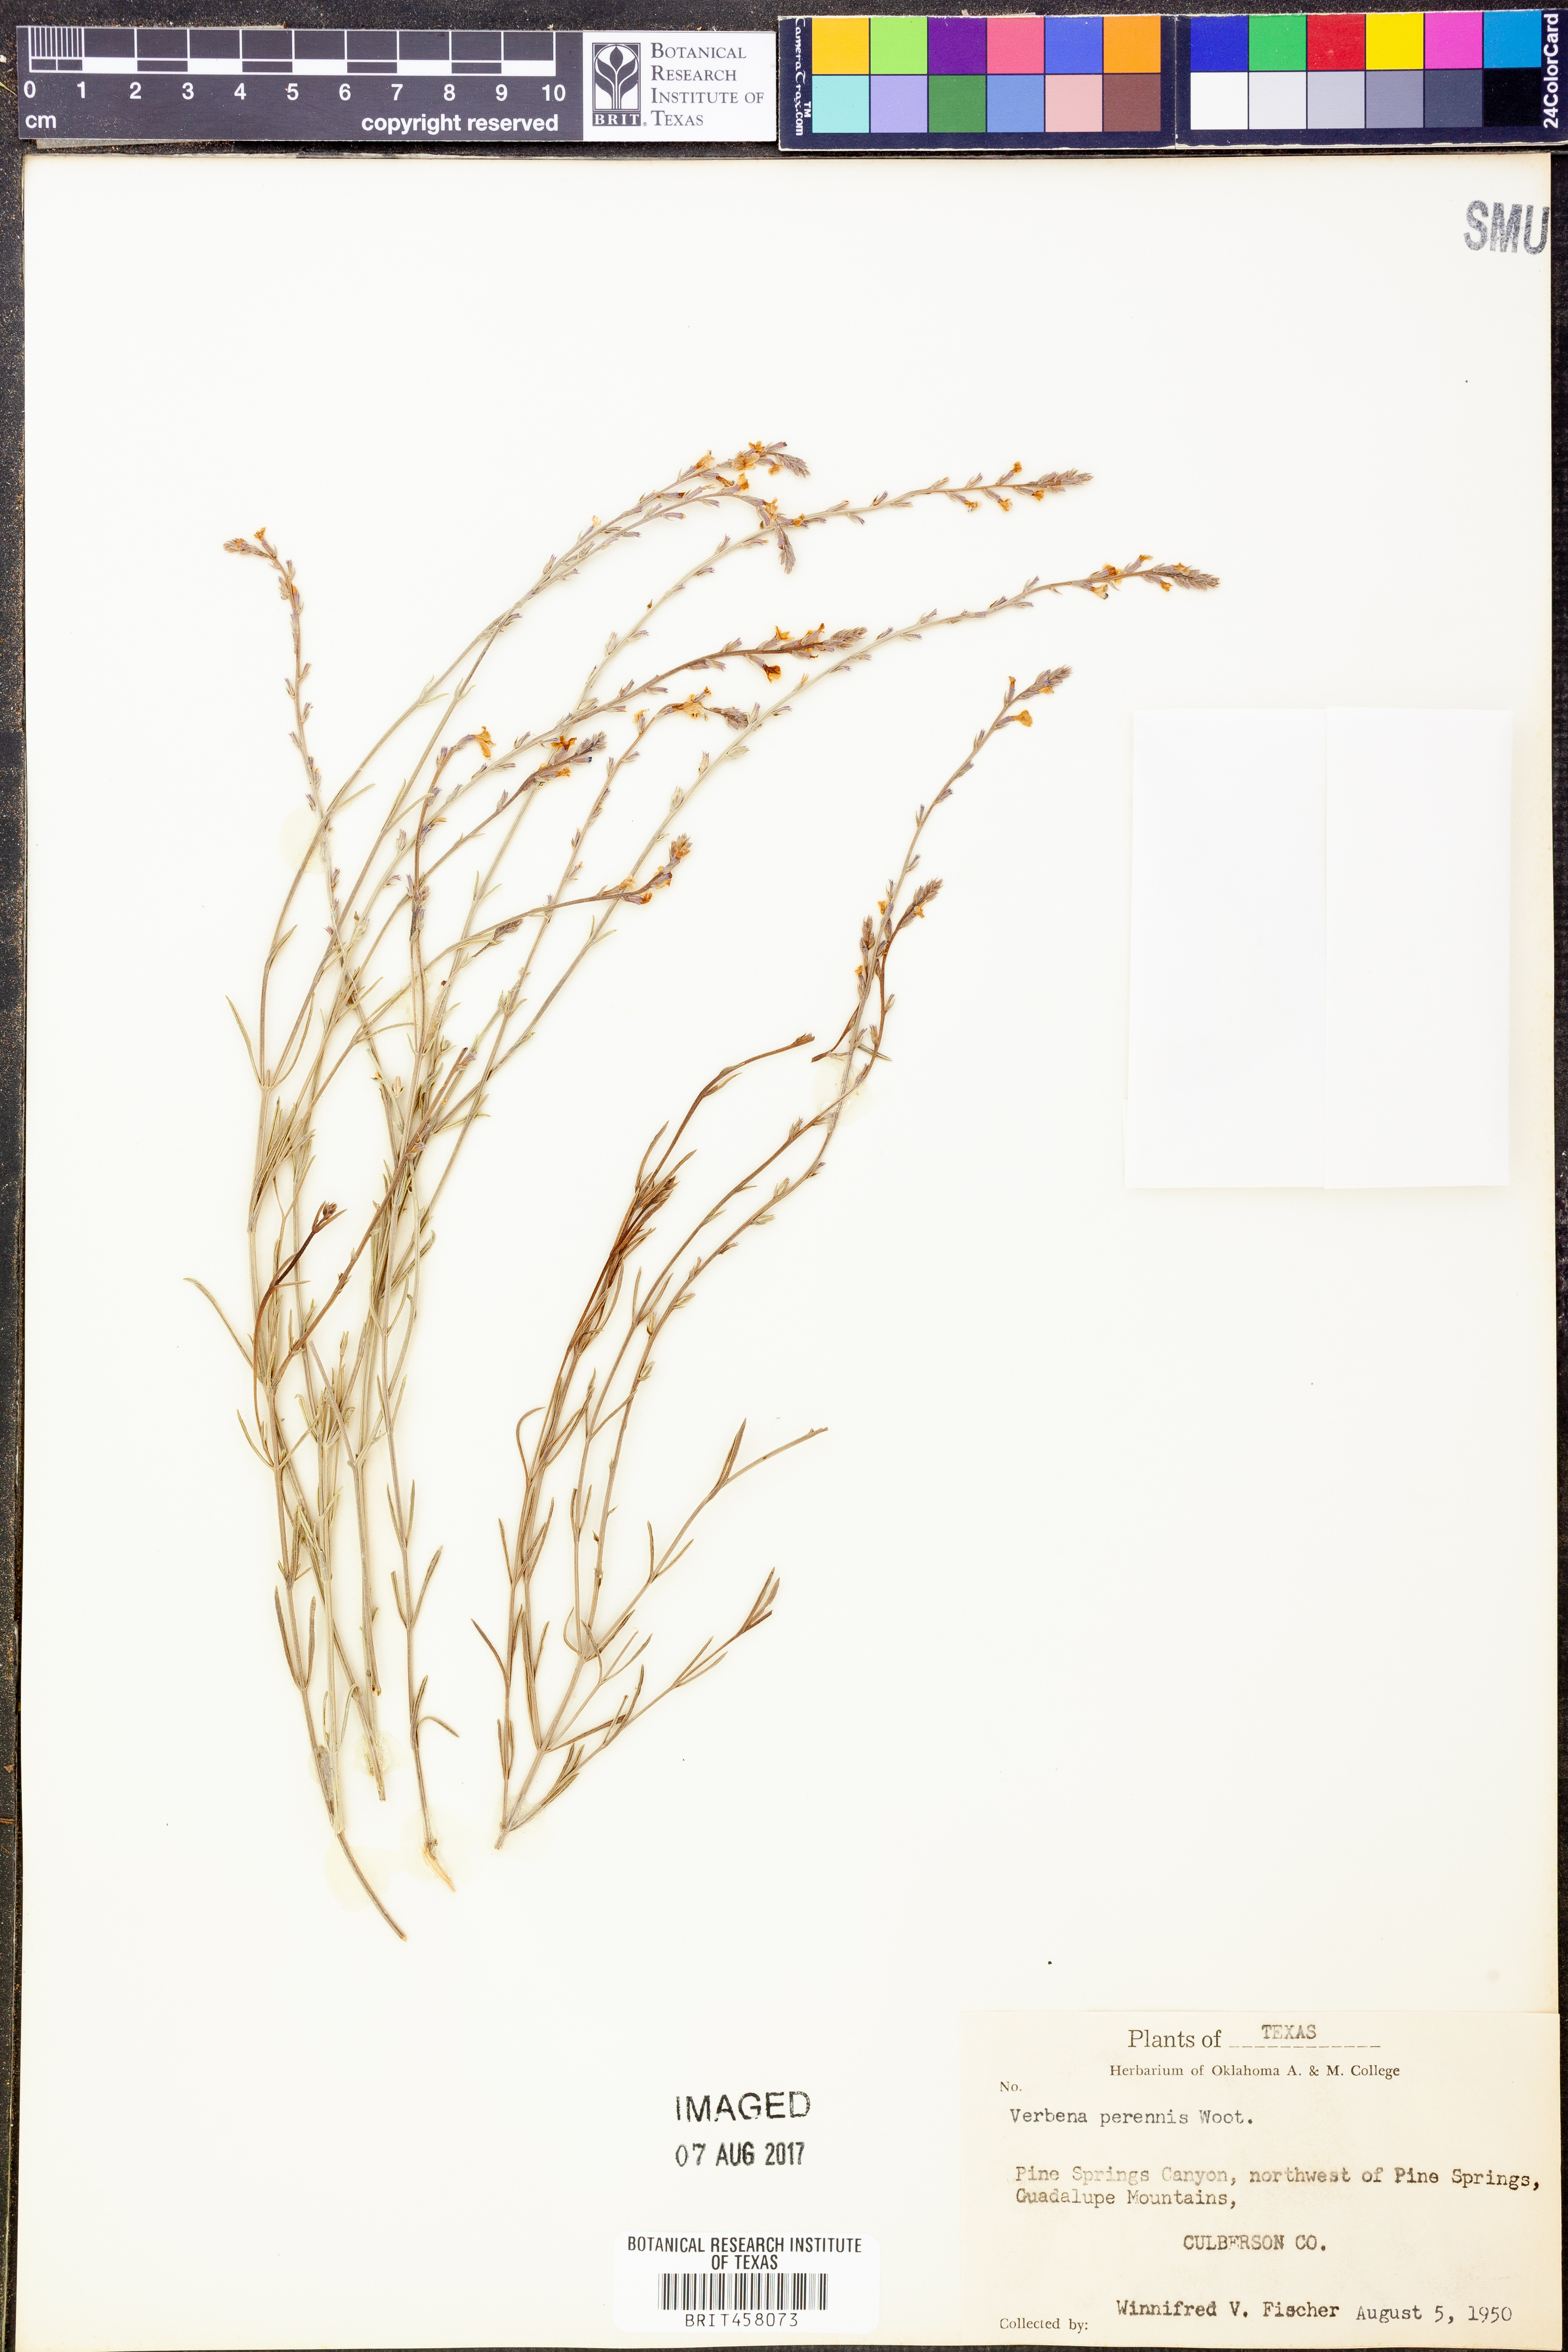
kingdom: Plantae
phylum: Tracheophyta
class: Magnoliopsida
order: Lamiales
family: Verbenaceae
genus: Verbena
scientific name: Verbena perennis
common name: Pin-leaf vervain
